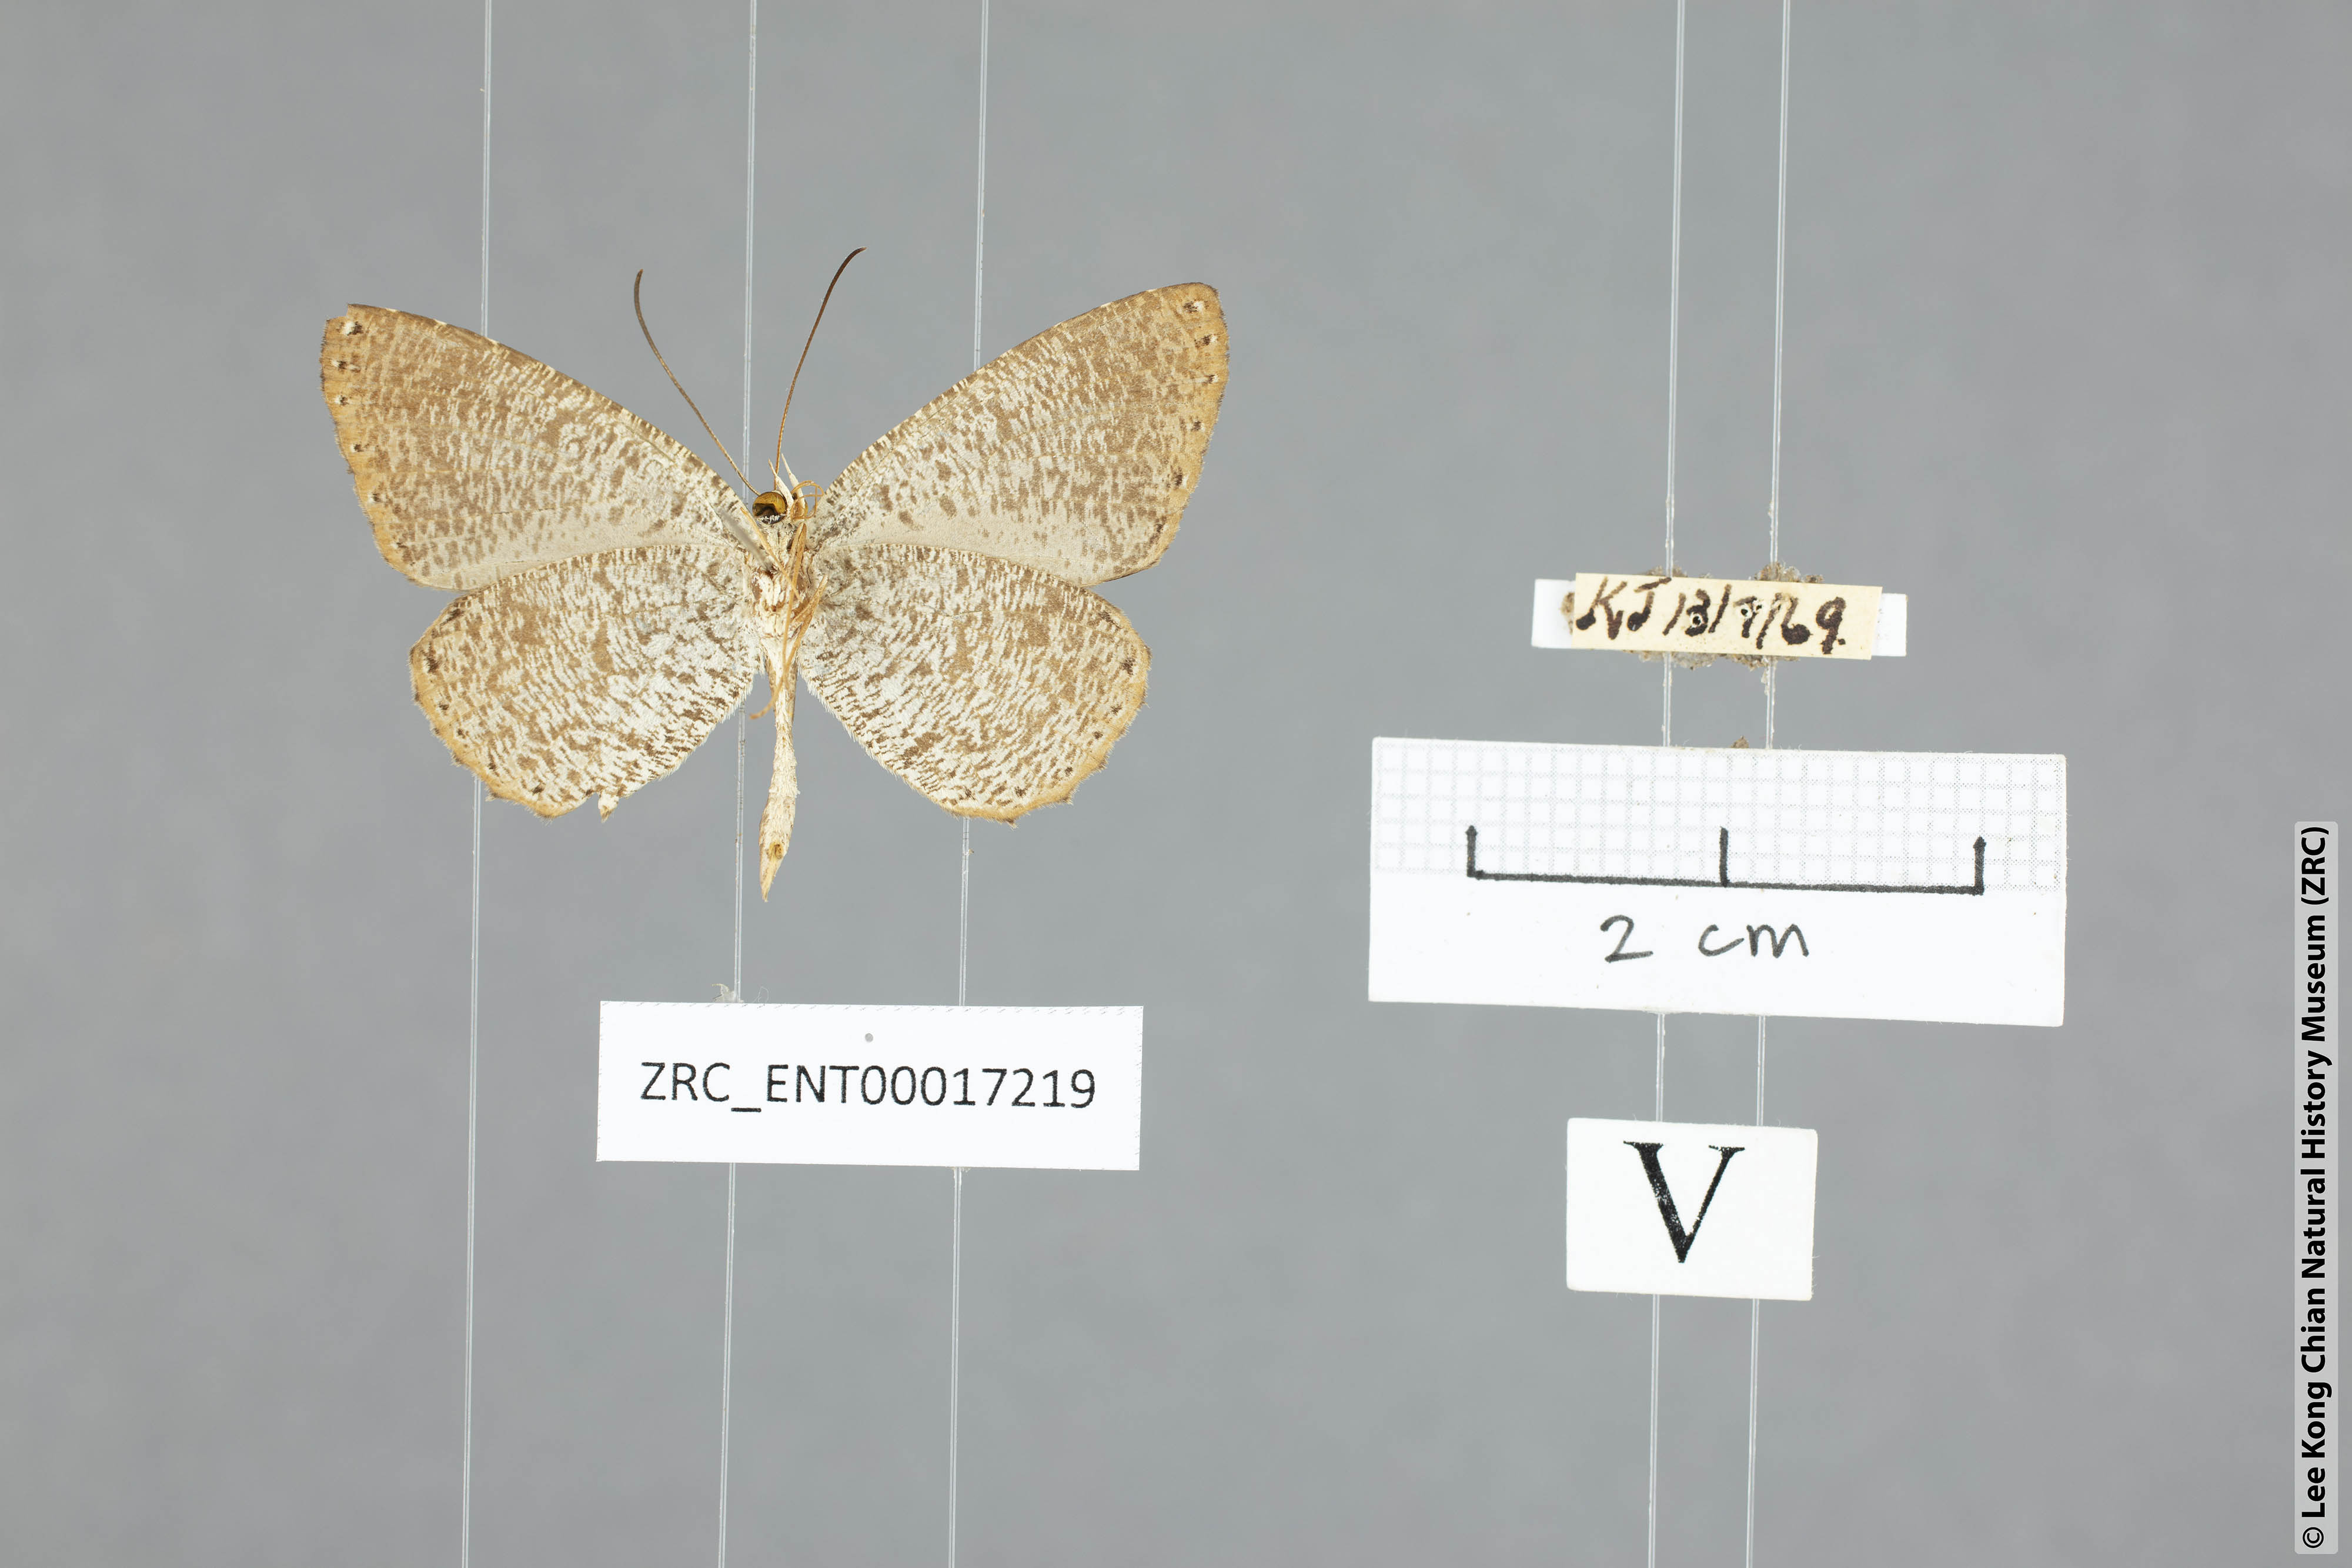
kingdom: Animalia
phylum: Arthropoda
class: Insecta
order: Lepidoptera
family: Lycaenidae
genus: Allotinus
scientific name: Allotinus borneensis
